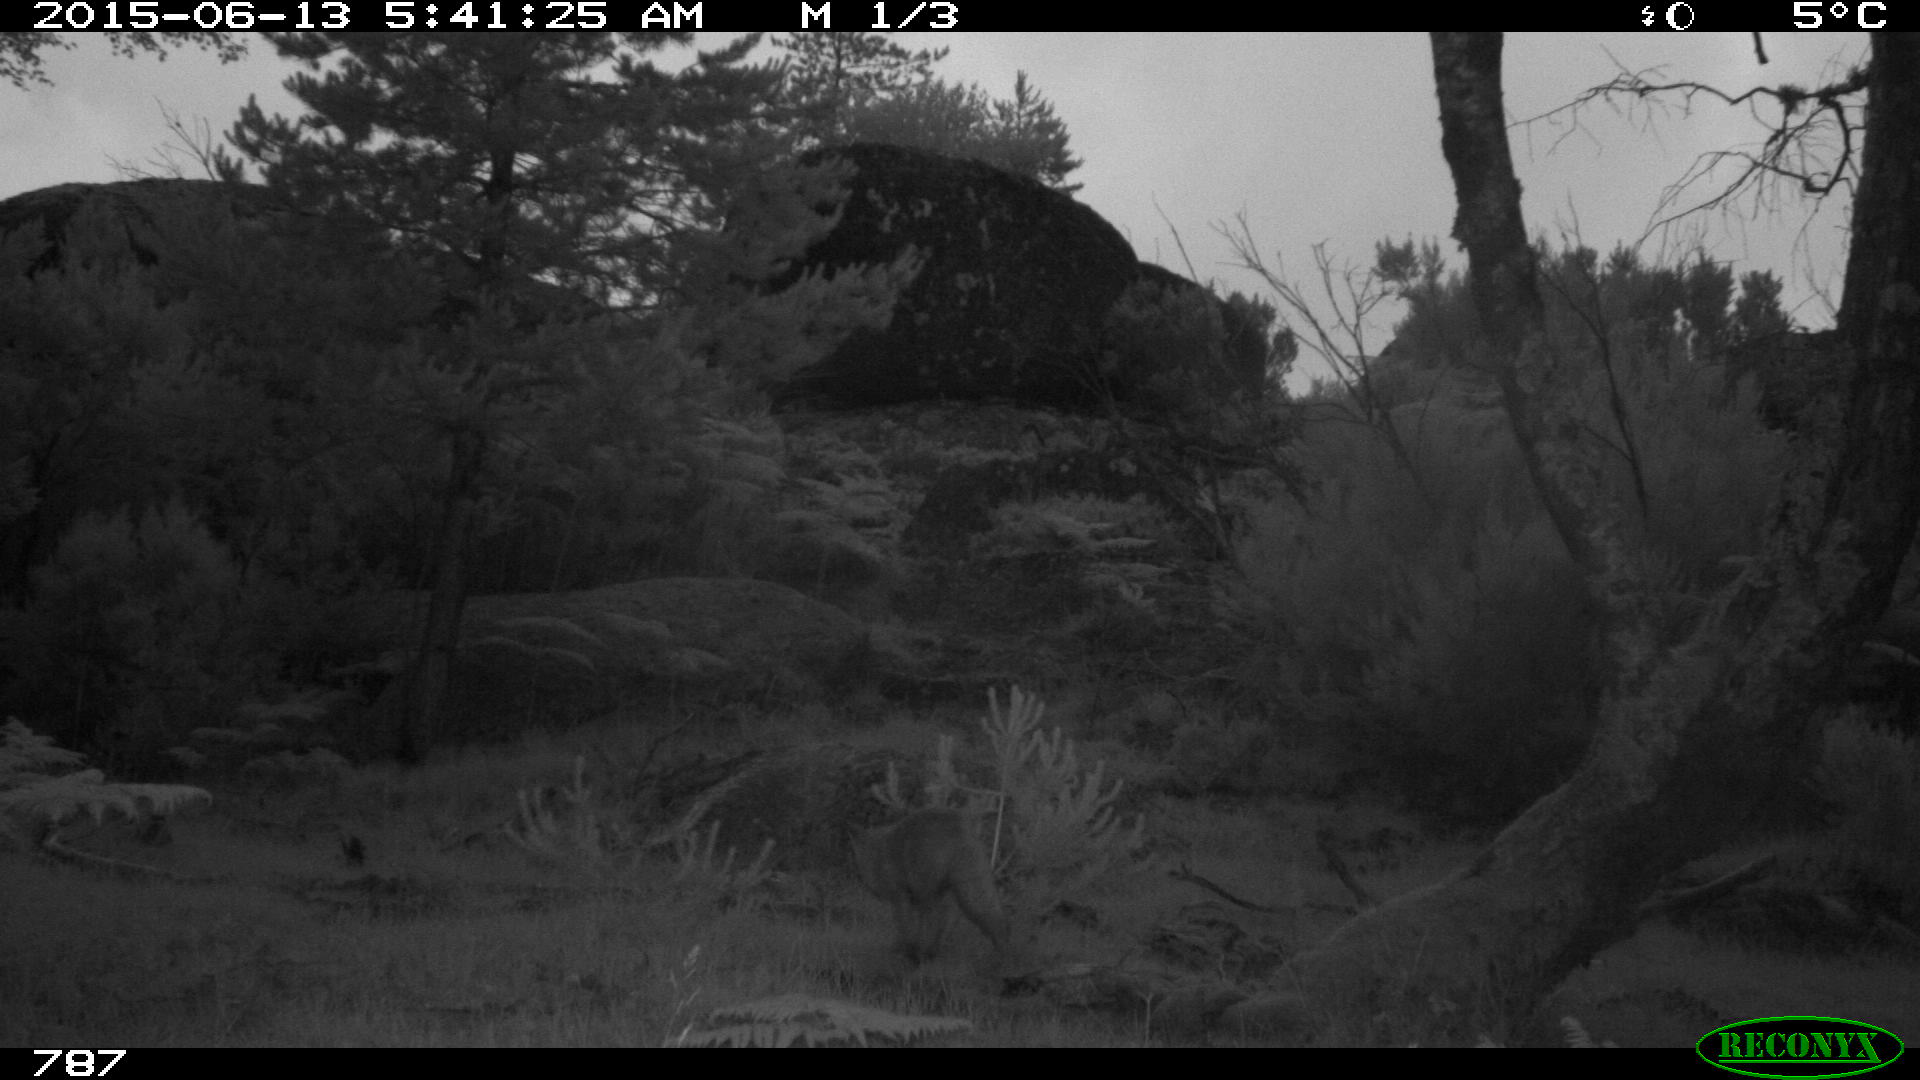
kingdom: Animalia
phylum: Chordata
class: Mammalia
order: Carnivora
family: Canidae
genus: Vulpes
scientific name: Vulpes vulpes
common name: Red fox
